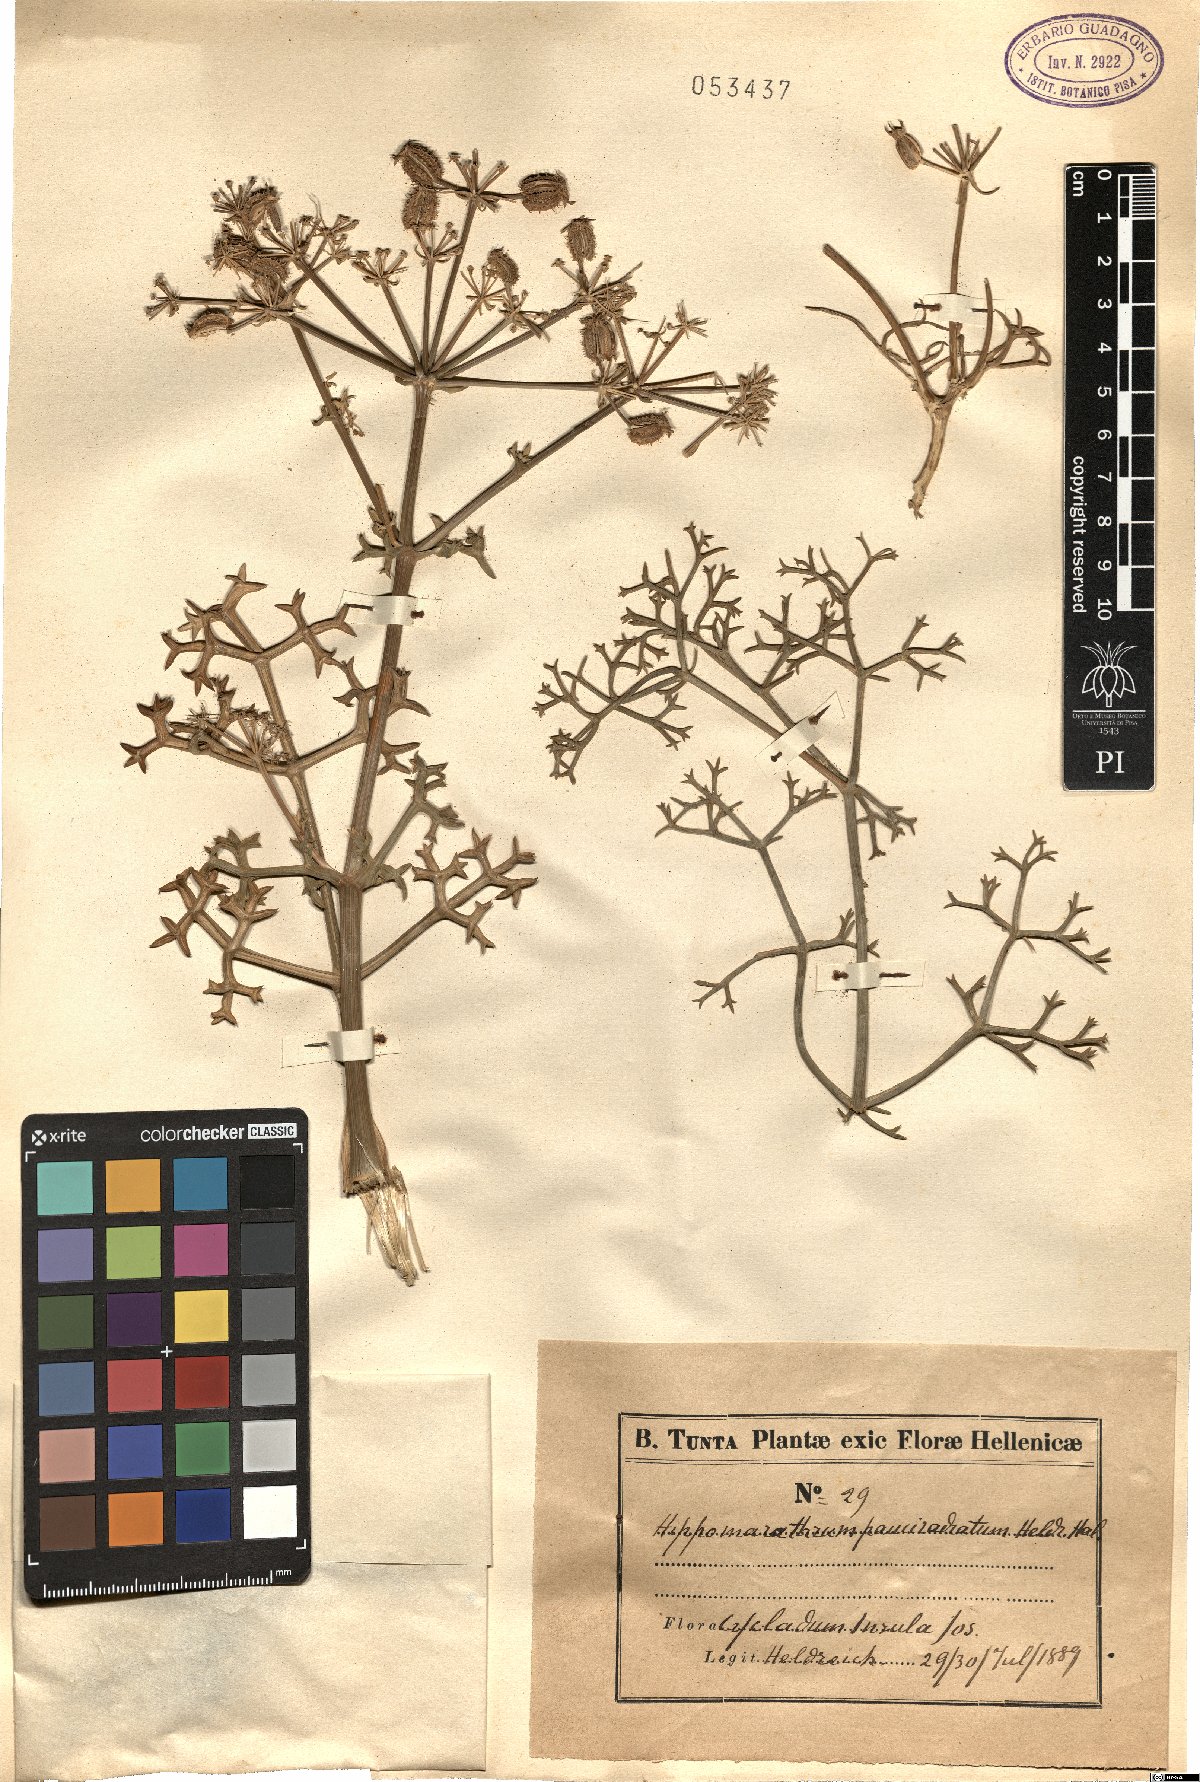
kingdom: Plantae
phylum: Tracheophyta
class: Magnoliopsida
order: Apiales
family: Apiaceae
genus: Cachrys
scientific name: Cachrys cristata
